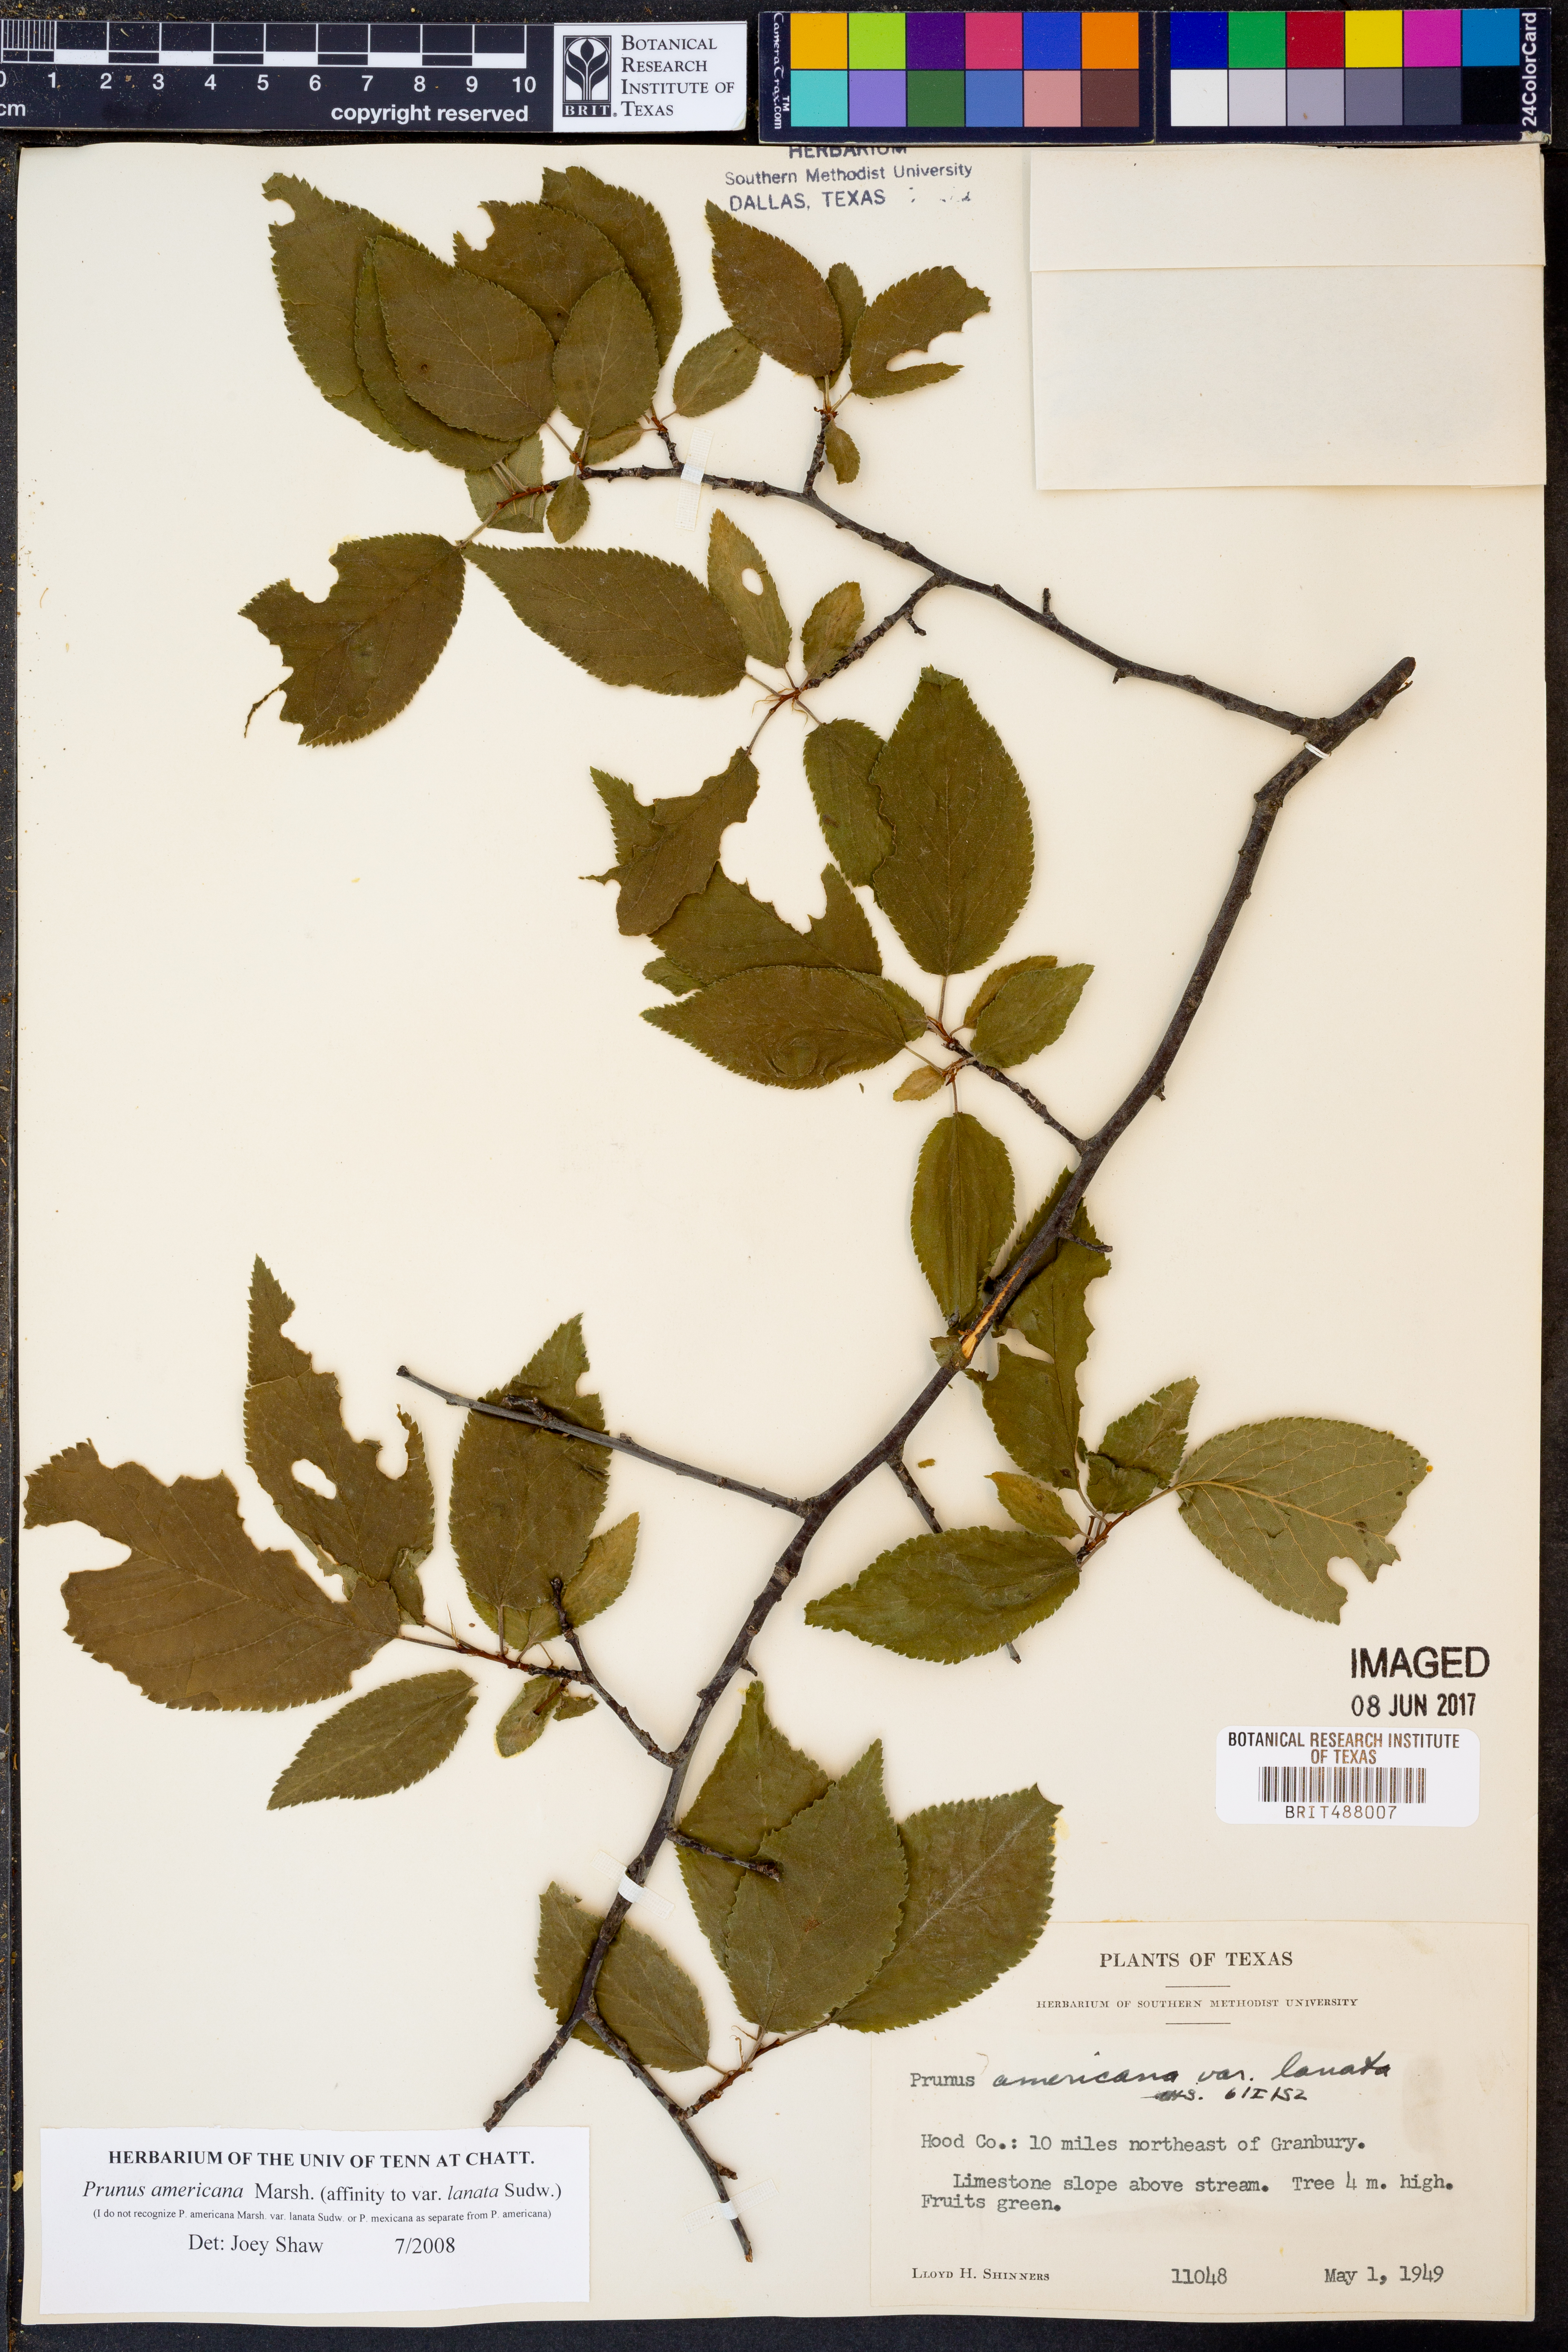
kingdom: Plantae
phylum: Tracheophyta
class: Magnoliopsida
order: Rosales
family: Rosaceae
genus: Prunus
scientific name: Prunus americana
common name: American plum
